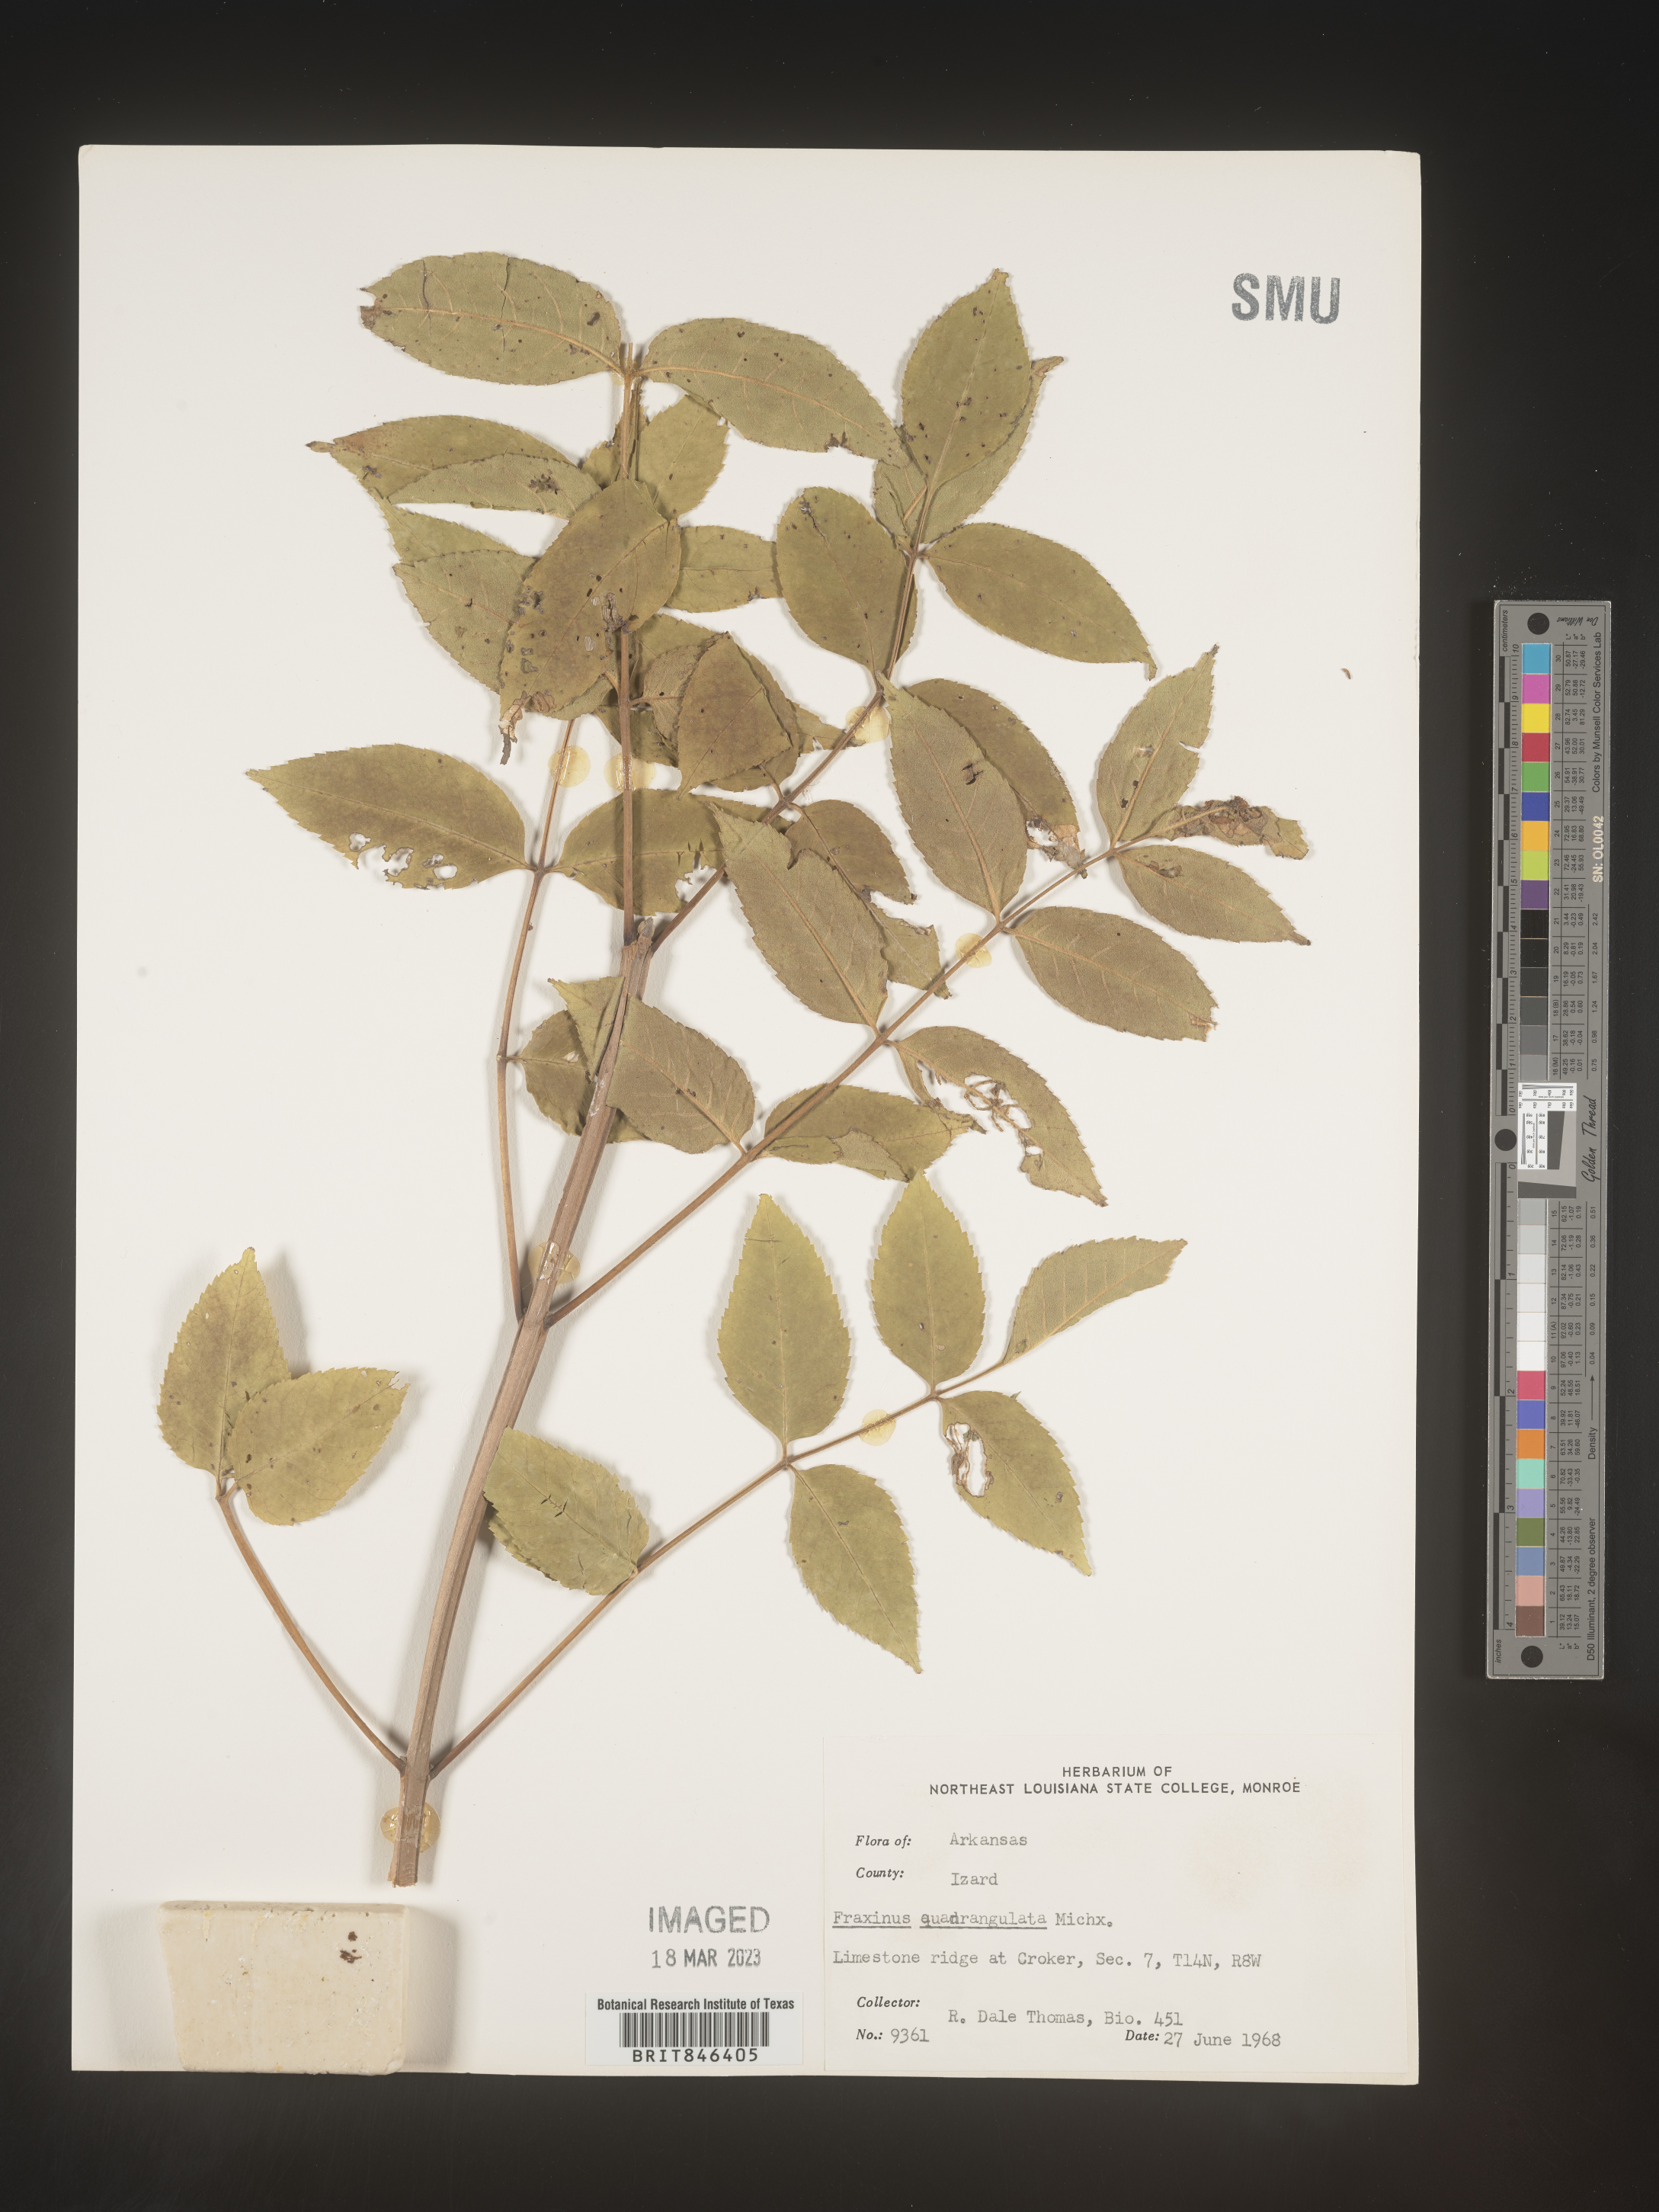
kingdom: Plantae
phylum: Tracheophyta
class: Magnoliopsida
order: Lamiales
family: Oleaceae
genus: Fraxinus
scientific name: Fraxinus quadrangulata
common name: Blue ash
